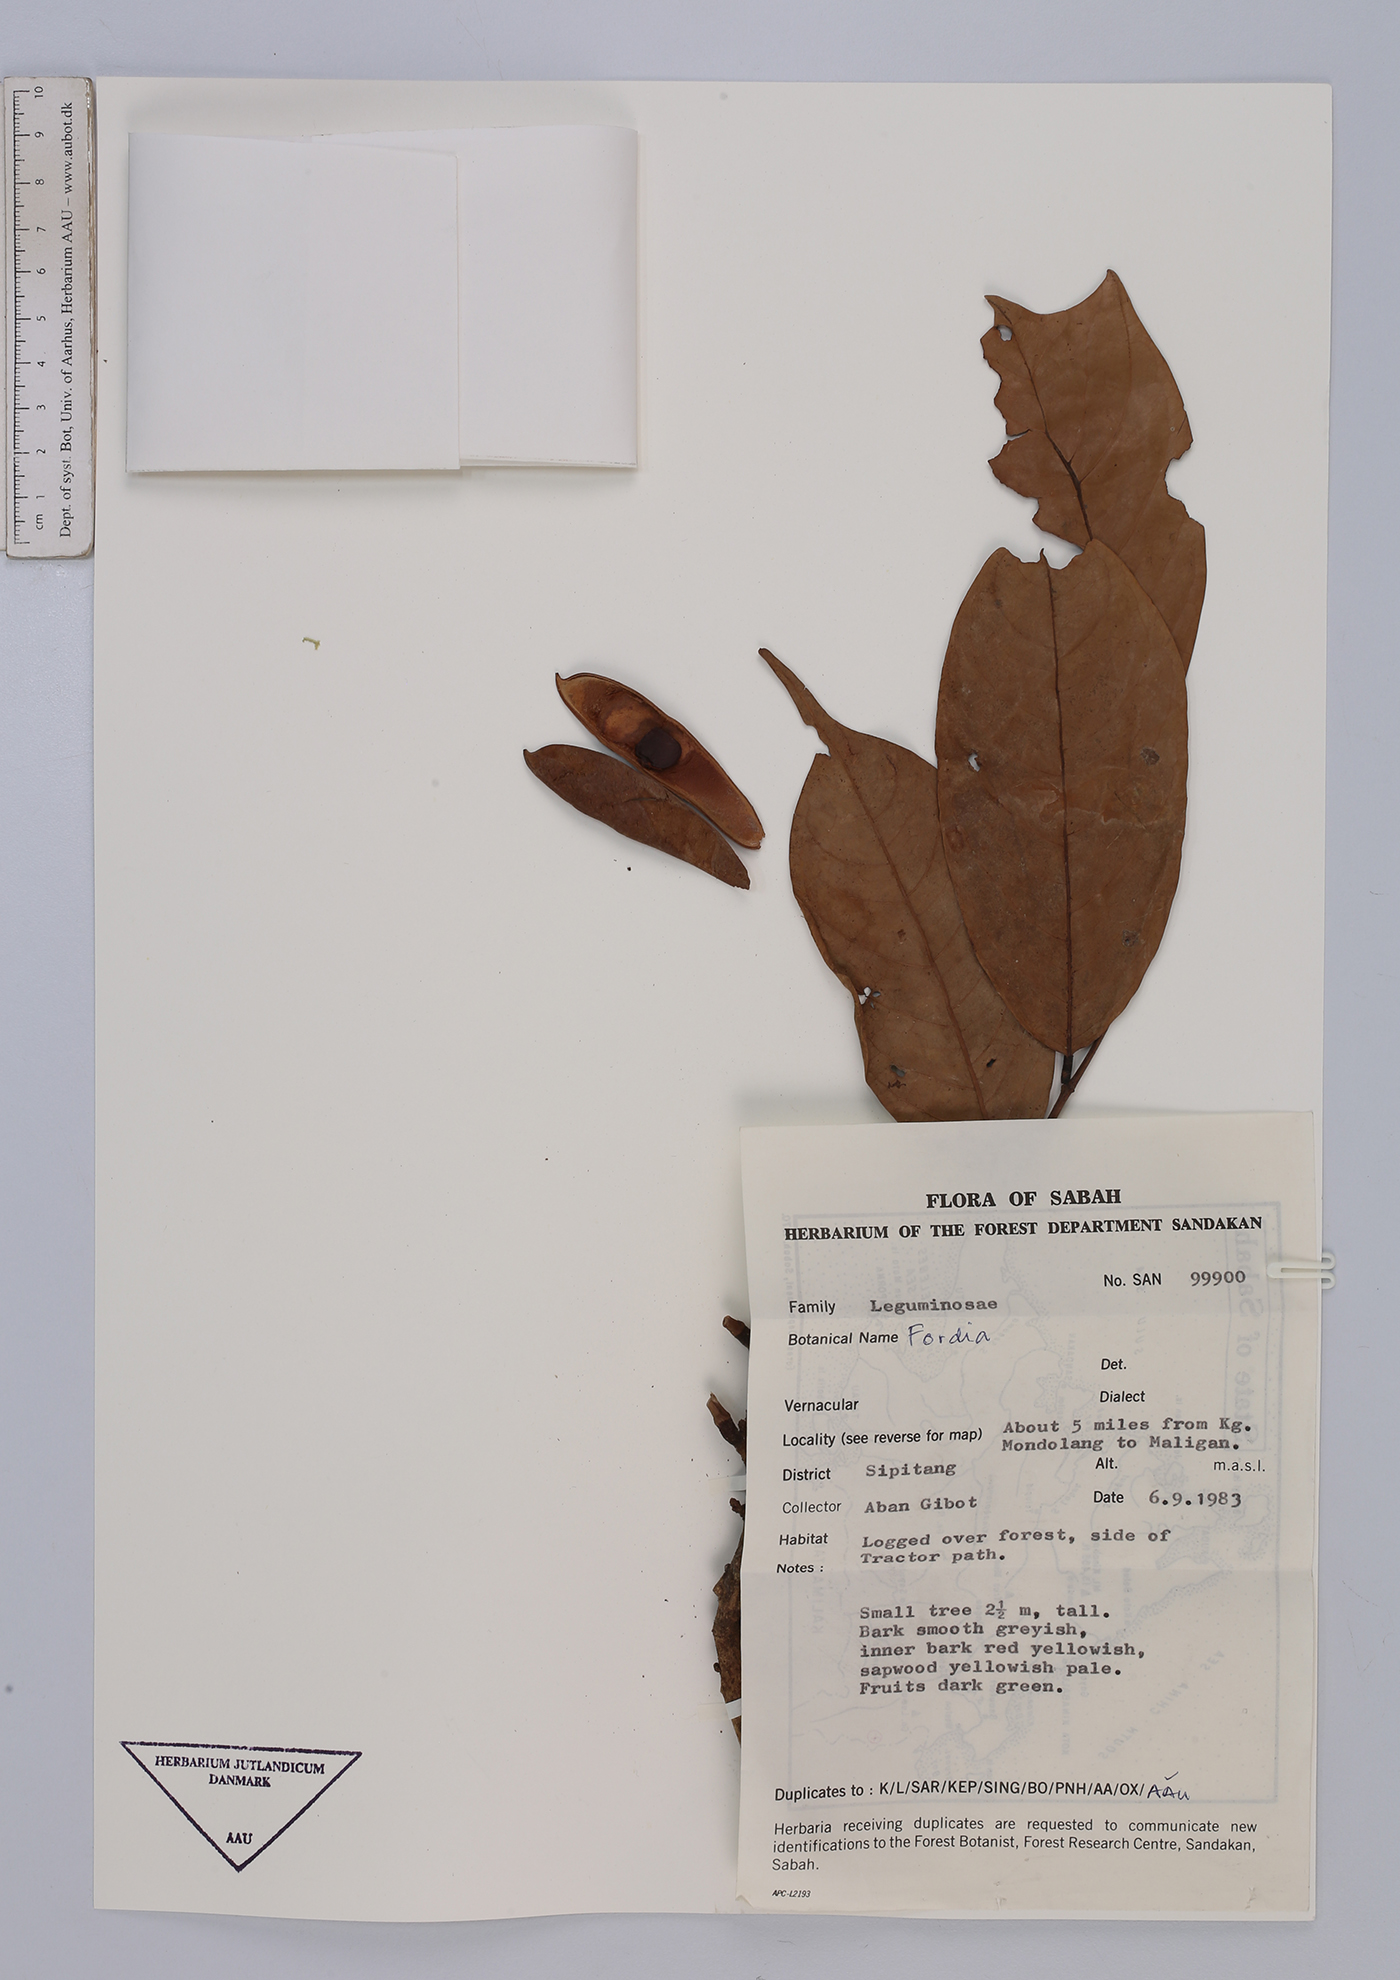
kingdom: Plantae
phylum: Tracheophyta
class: Magnoliopsida
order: Fabales
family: Fabaceae
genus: Fordia
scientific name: Fordia
